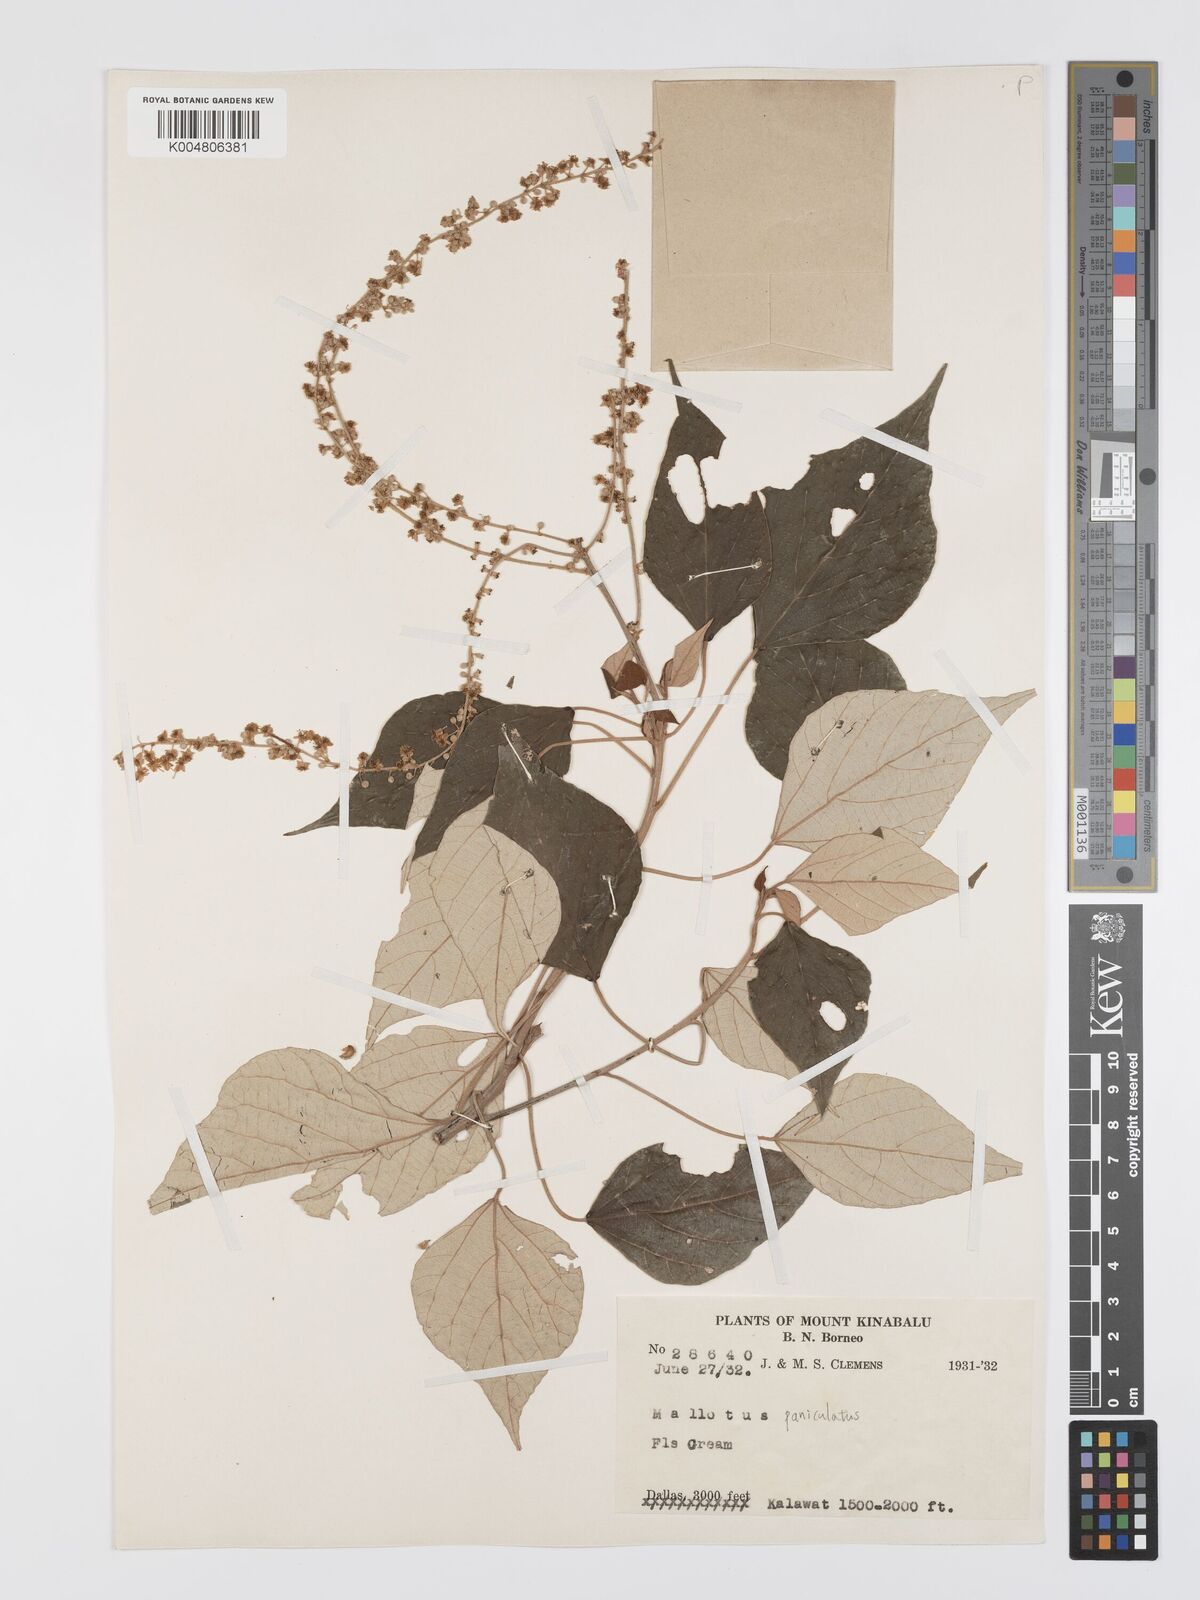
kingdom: Plantae
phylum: Tracheophyta
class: Magnoliopsida
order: Malpighiales
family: Euphorbiaceae
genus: Mallotus
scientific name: Mallotus paniculatus
